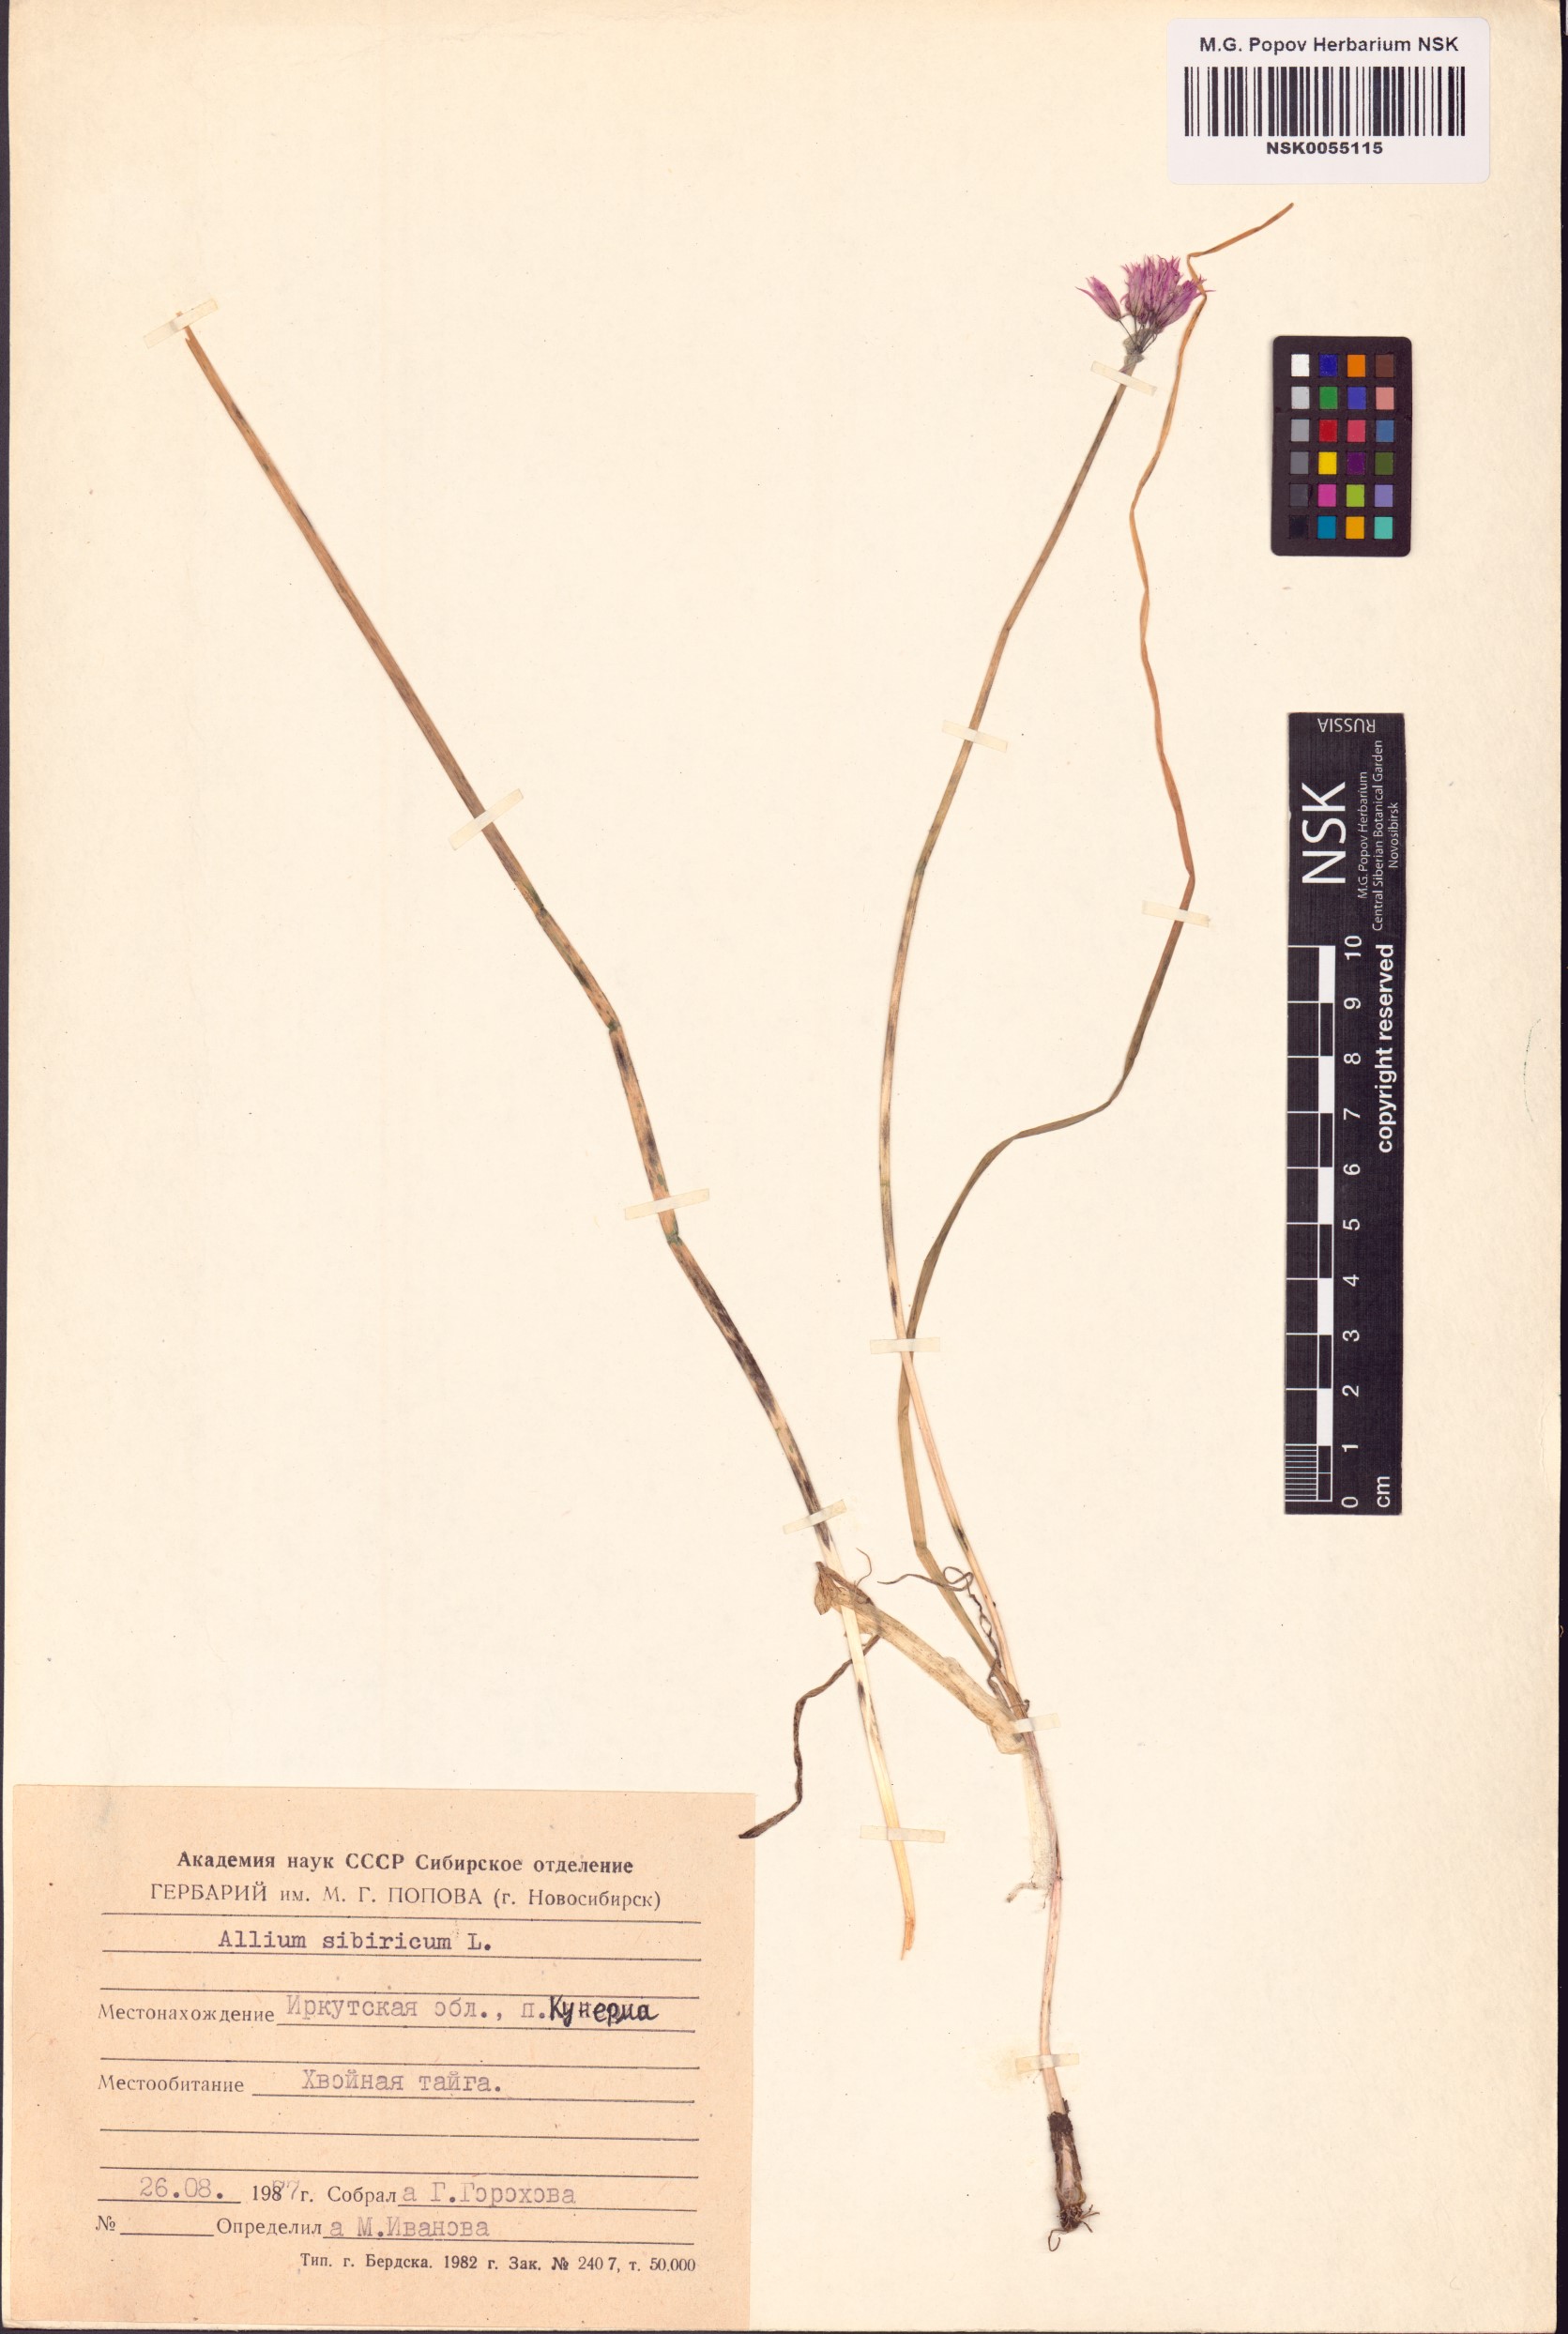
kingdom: Plantae
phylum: Tracheophyta
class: Liliopsida
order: Asparagales
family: Amaryllidaceae
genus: Allium
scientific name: Allium schoenoprasum
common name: Chives
